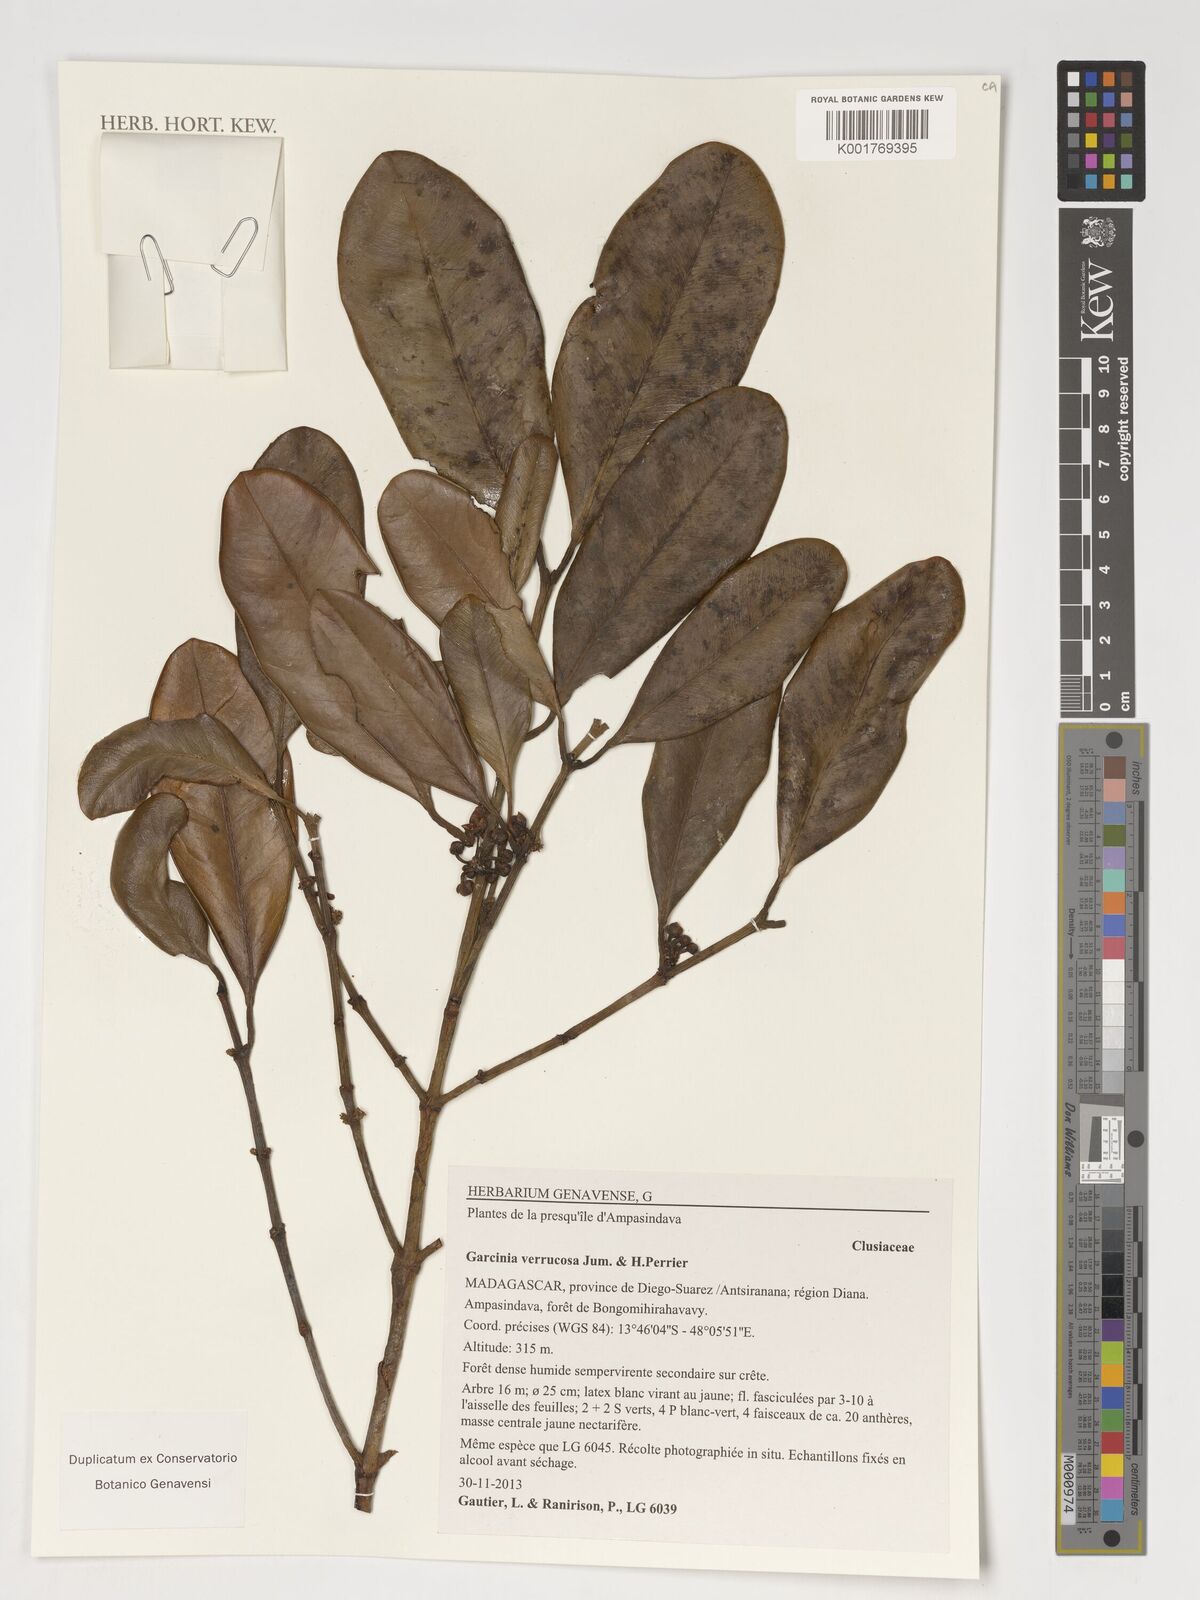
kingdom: Plantae
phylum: Tracheophyta
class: Magnoliopsida
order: Malpighiales
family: Clusiaceae
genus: Garcinia
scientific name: Garcinia verrucosa
